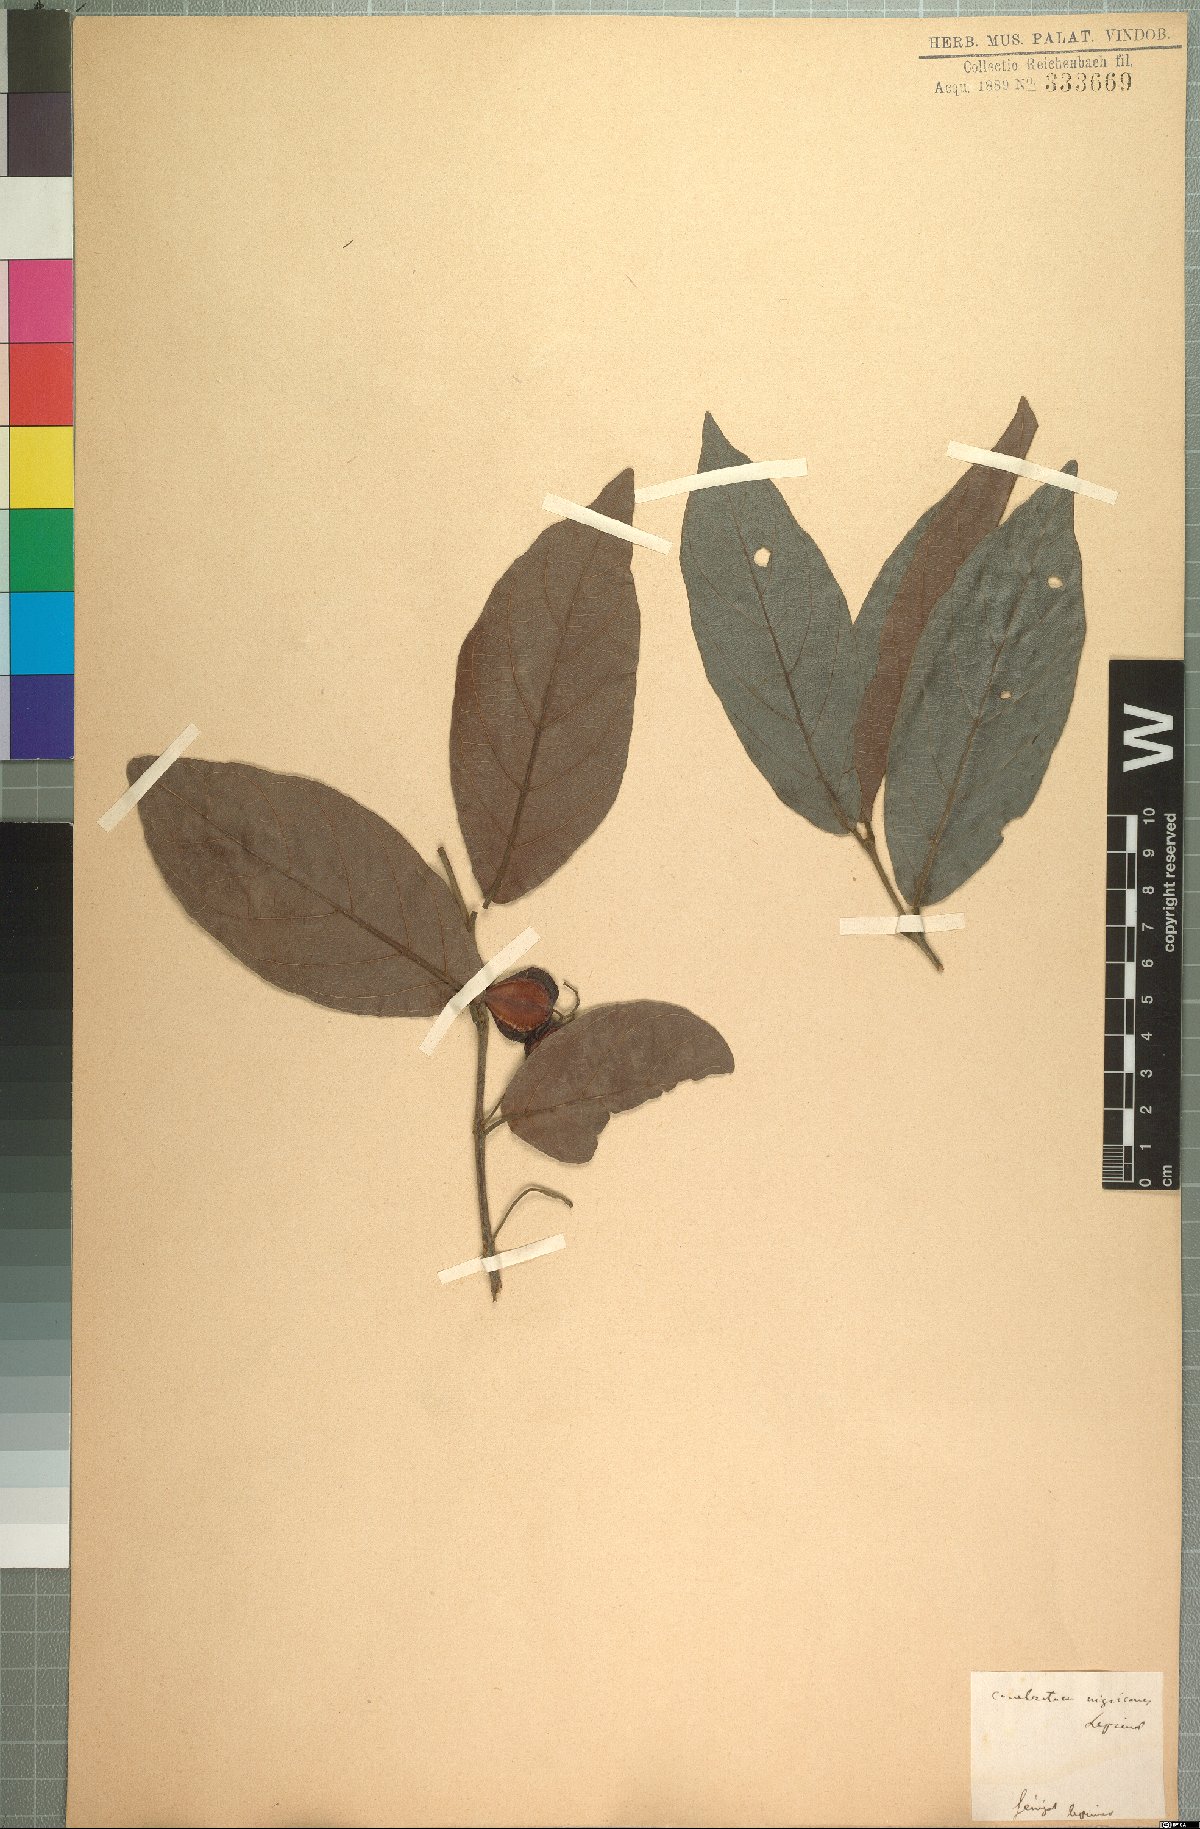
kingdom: Plantae
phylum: Tracheophyta
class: Magnoliopsida
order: Myrtales
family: Combretaceae
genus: Combretum
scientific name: Combretum nigricans
